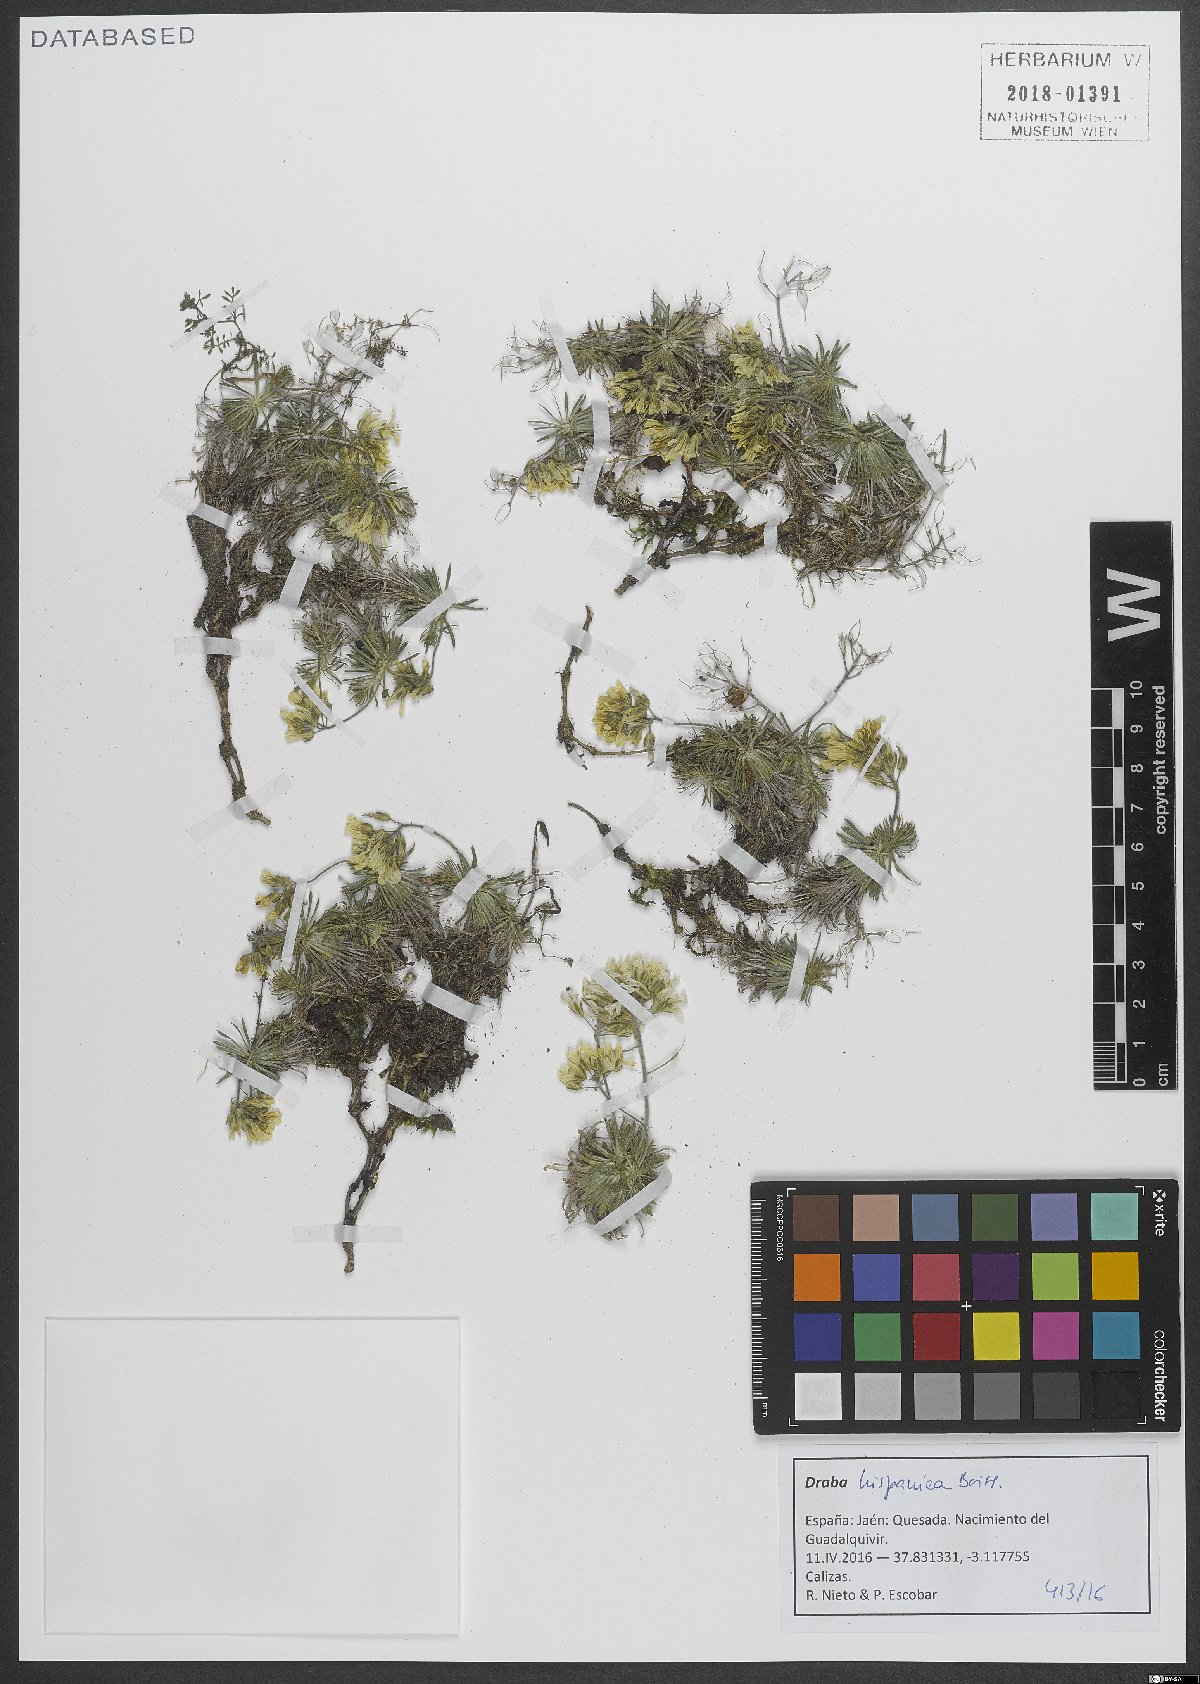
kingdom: Plantae
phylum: Tracheophyta
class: Magnoliopsida
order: Brassicales
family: Brassicaceae
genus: Draba
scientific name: Draba hispanica
